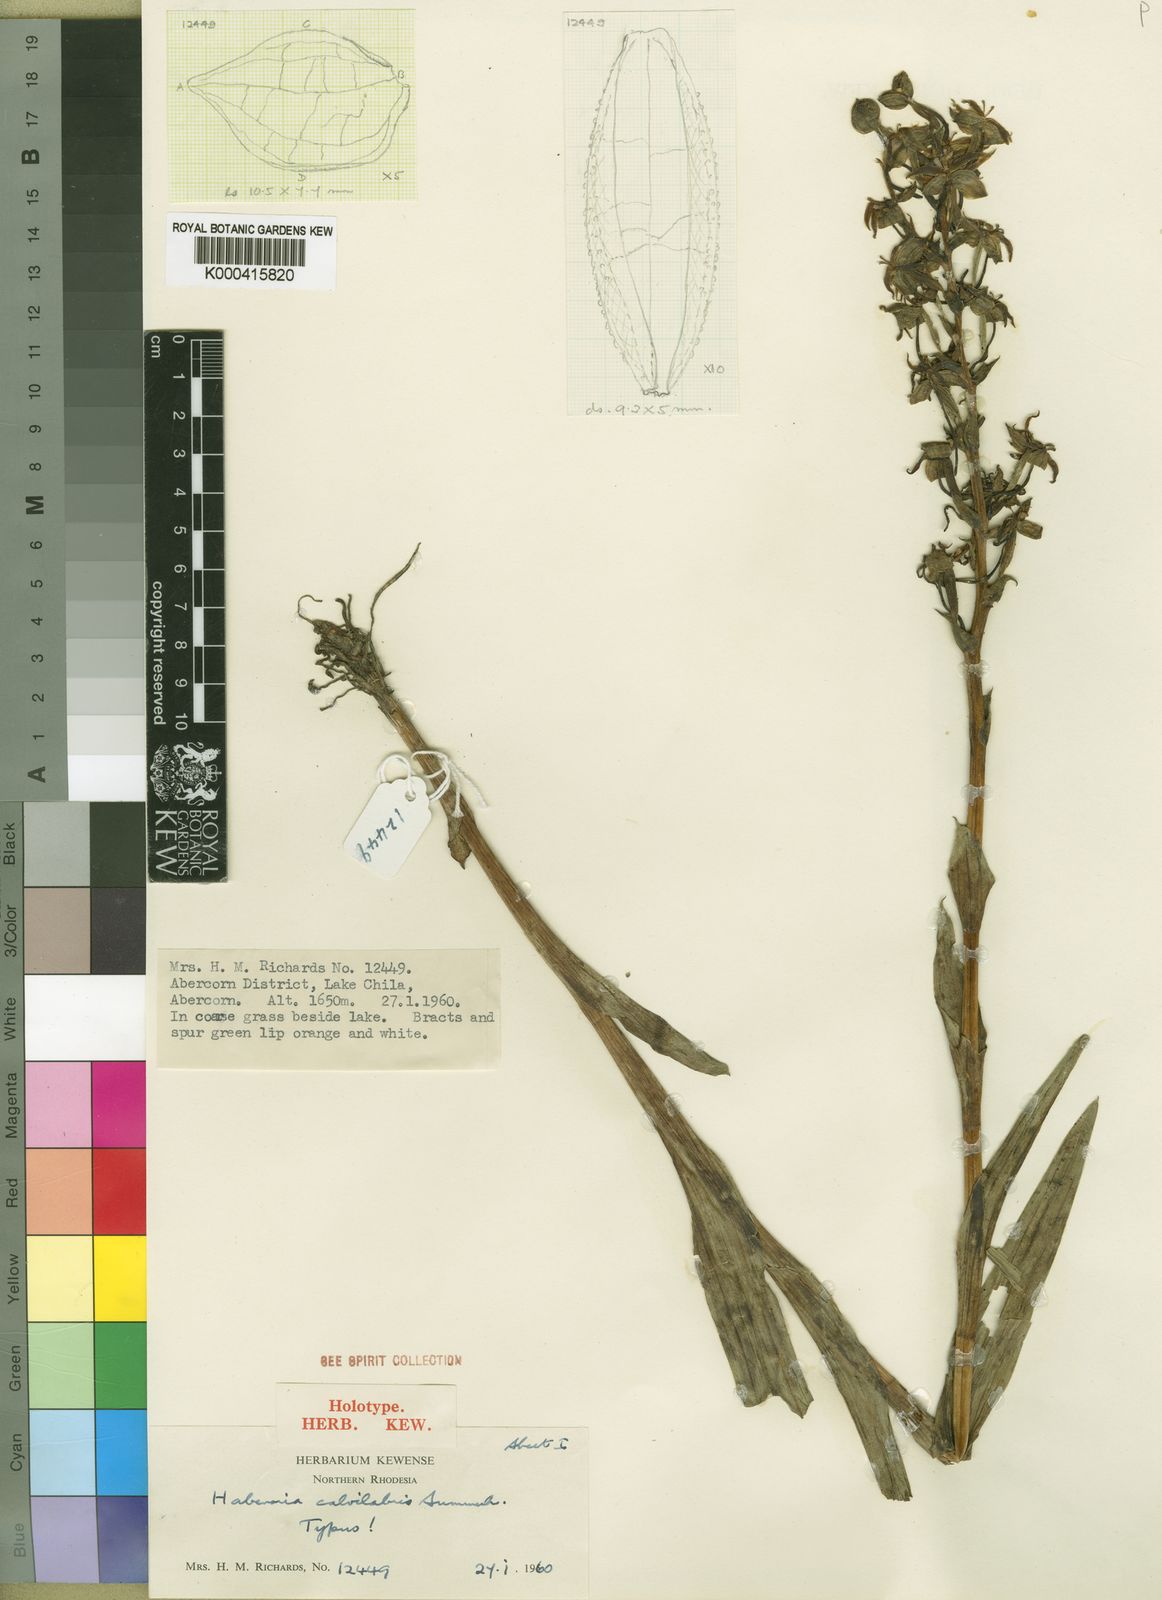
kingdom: Plantae
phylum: Tracheophyta
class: Liliopsida
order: Asparagales
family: Orchidaceae
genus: Habenaria
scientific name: Habenaria calvilabris
